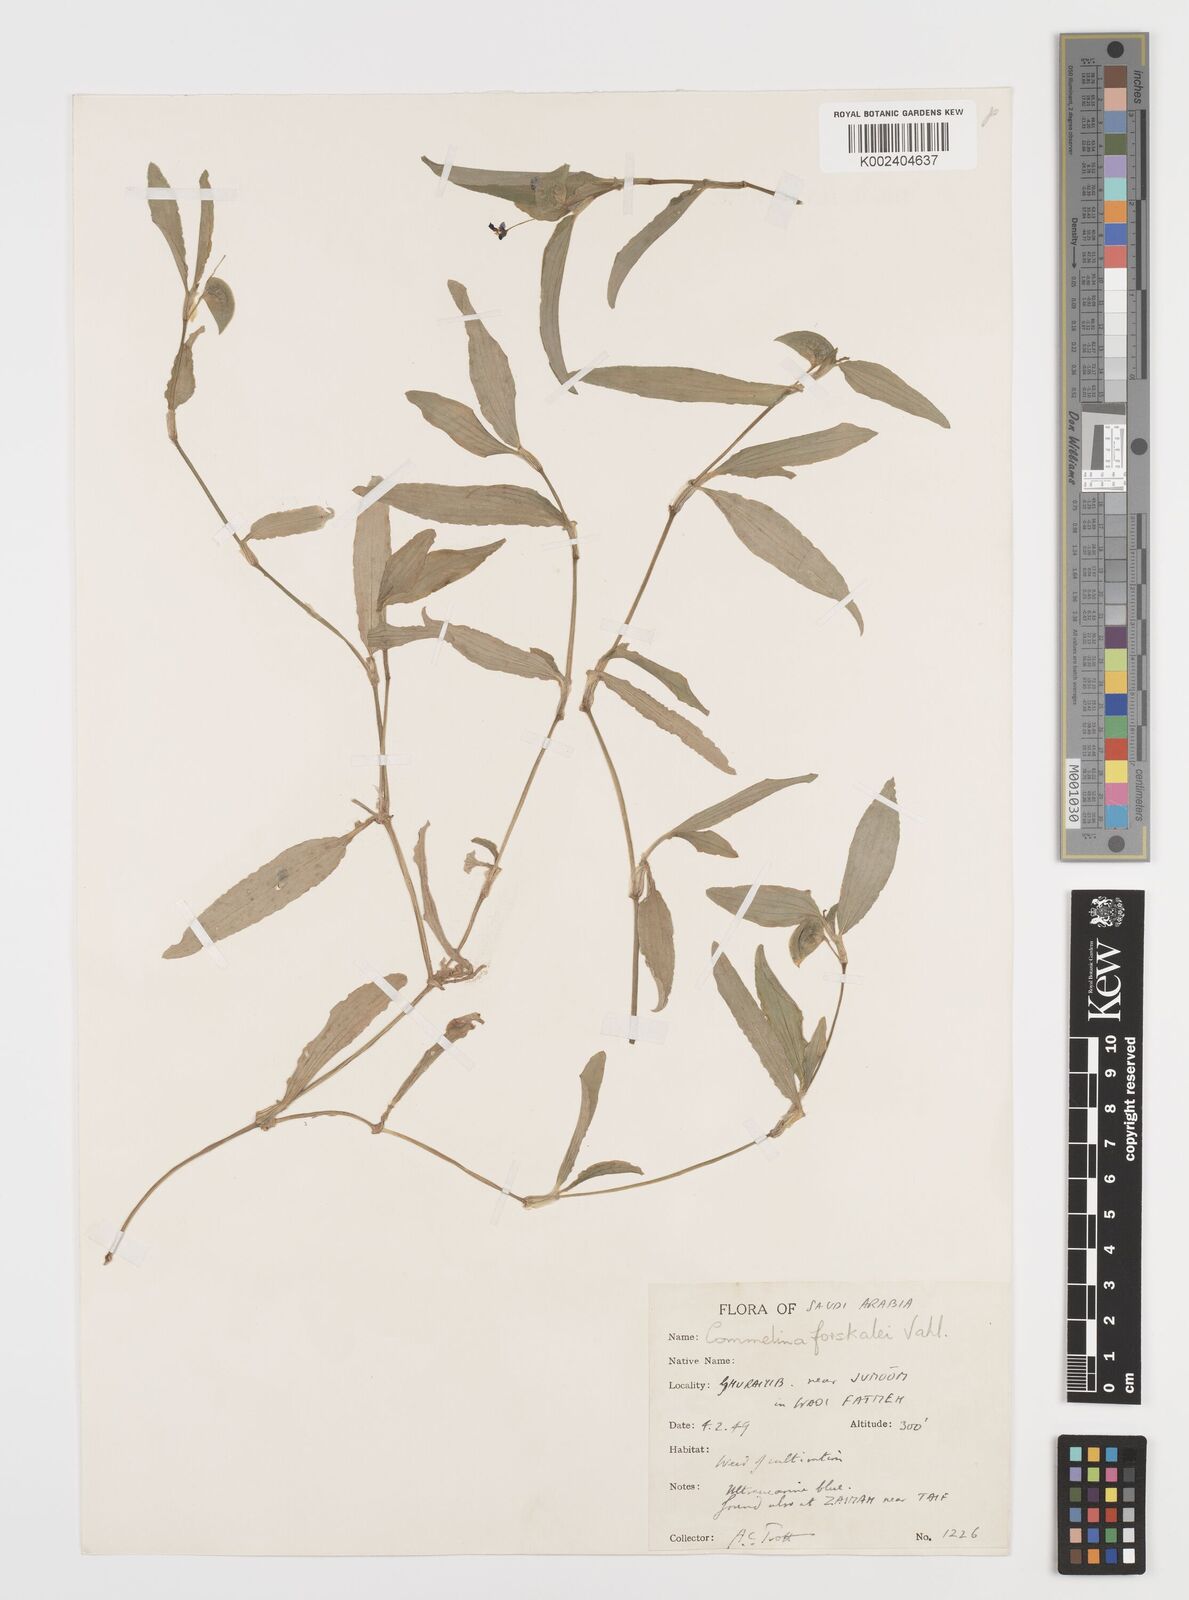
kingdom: Plantae
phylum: Tracheophyta
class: Liliopsida
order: Commelinales
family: Commelinaceae
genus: Commelina
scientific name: Commelina forskaolii
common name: Rat's ear
